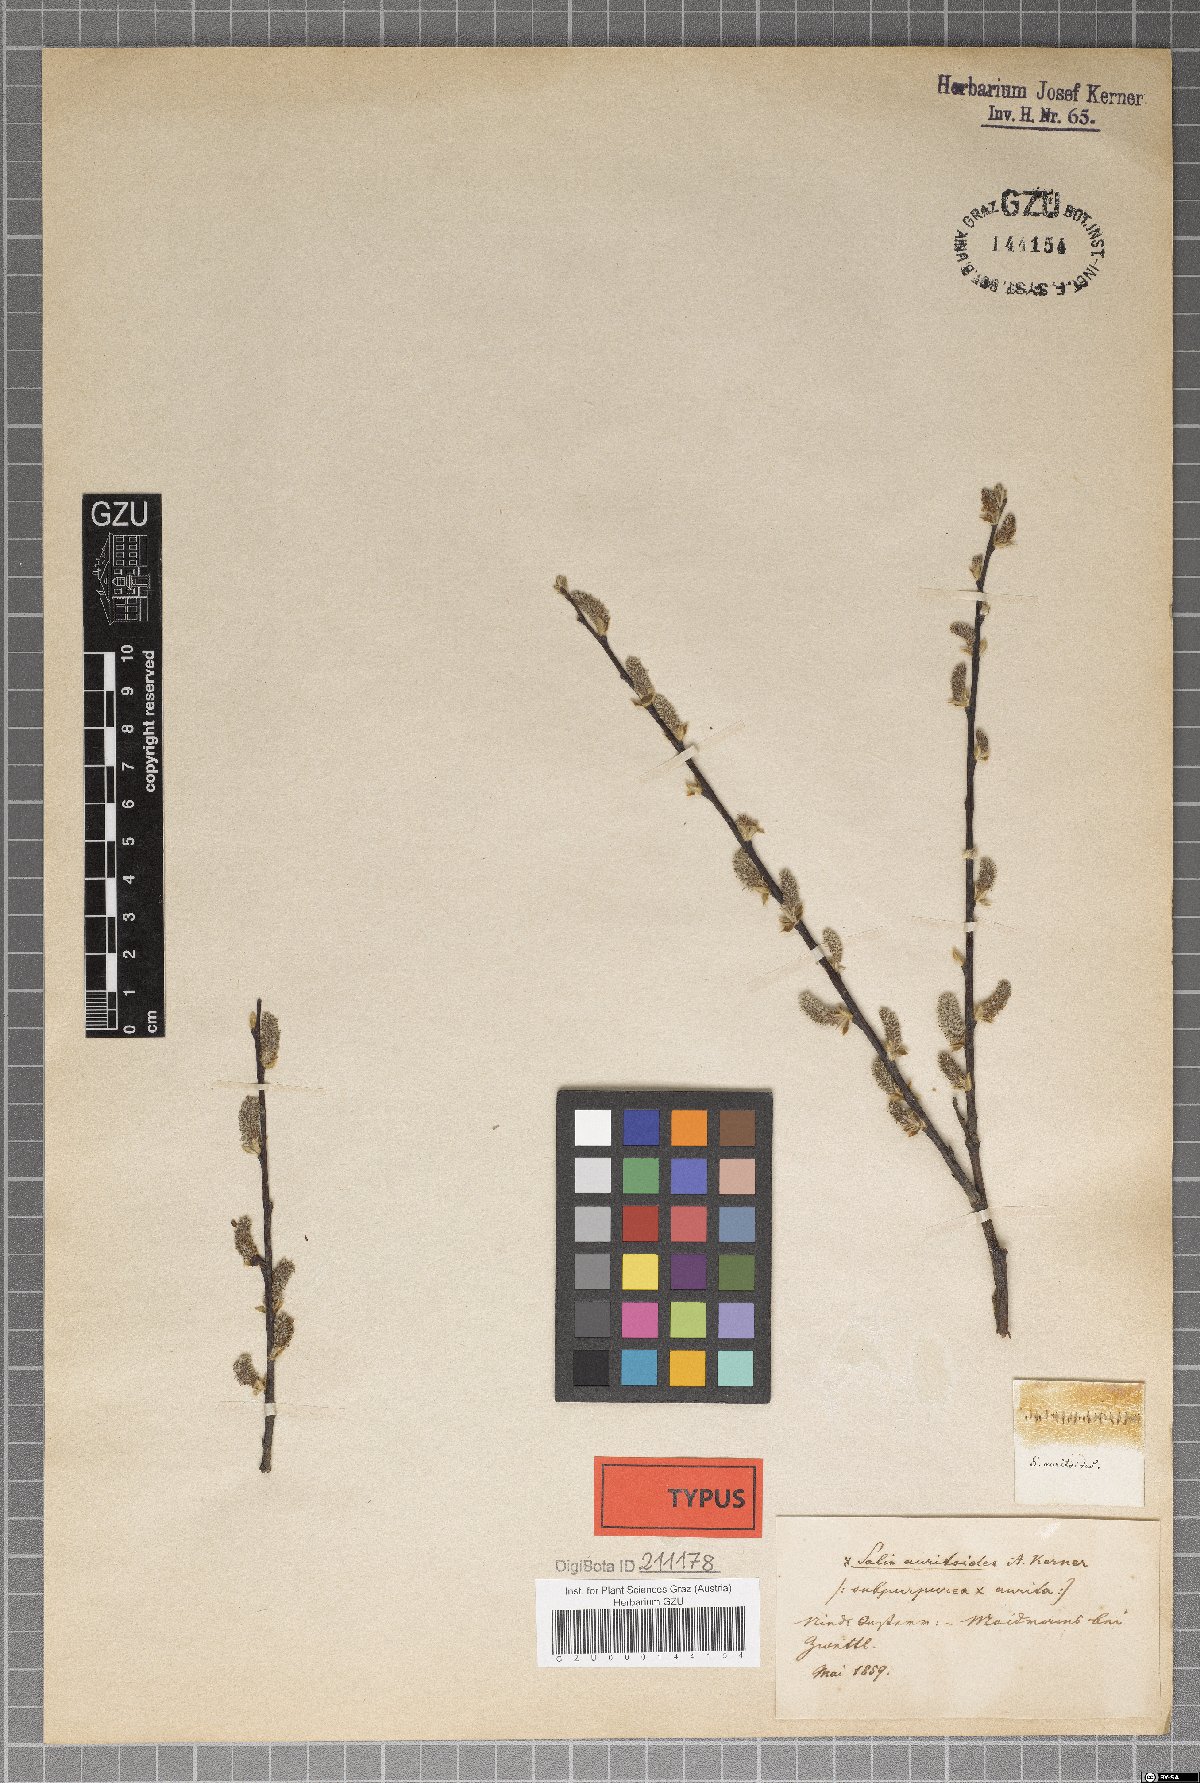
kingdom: Plantae
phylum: Tracheophyta
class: Magnoliopsida
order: Malpighiales
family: Salicaceae
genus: Salix
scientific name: Salix dichroa
